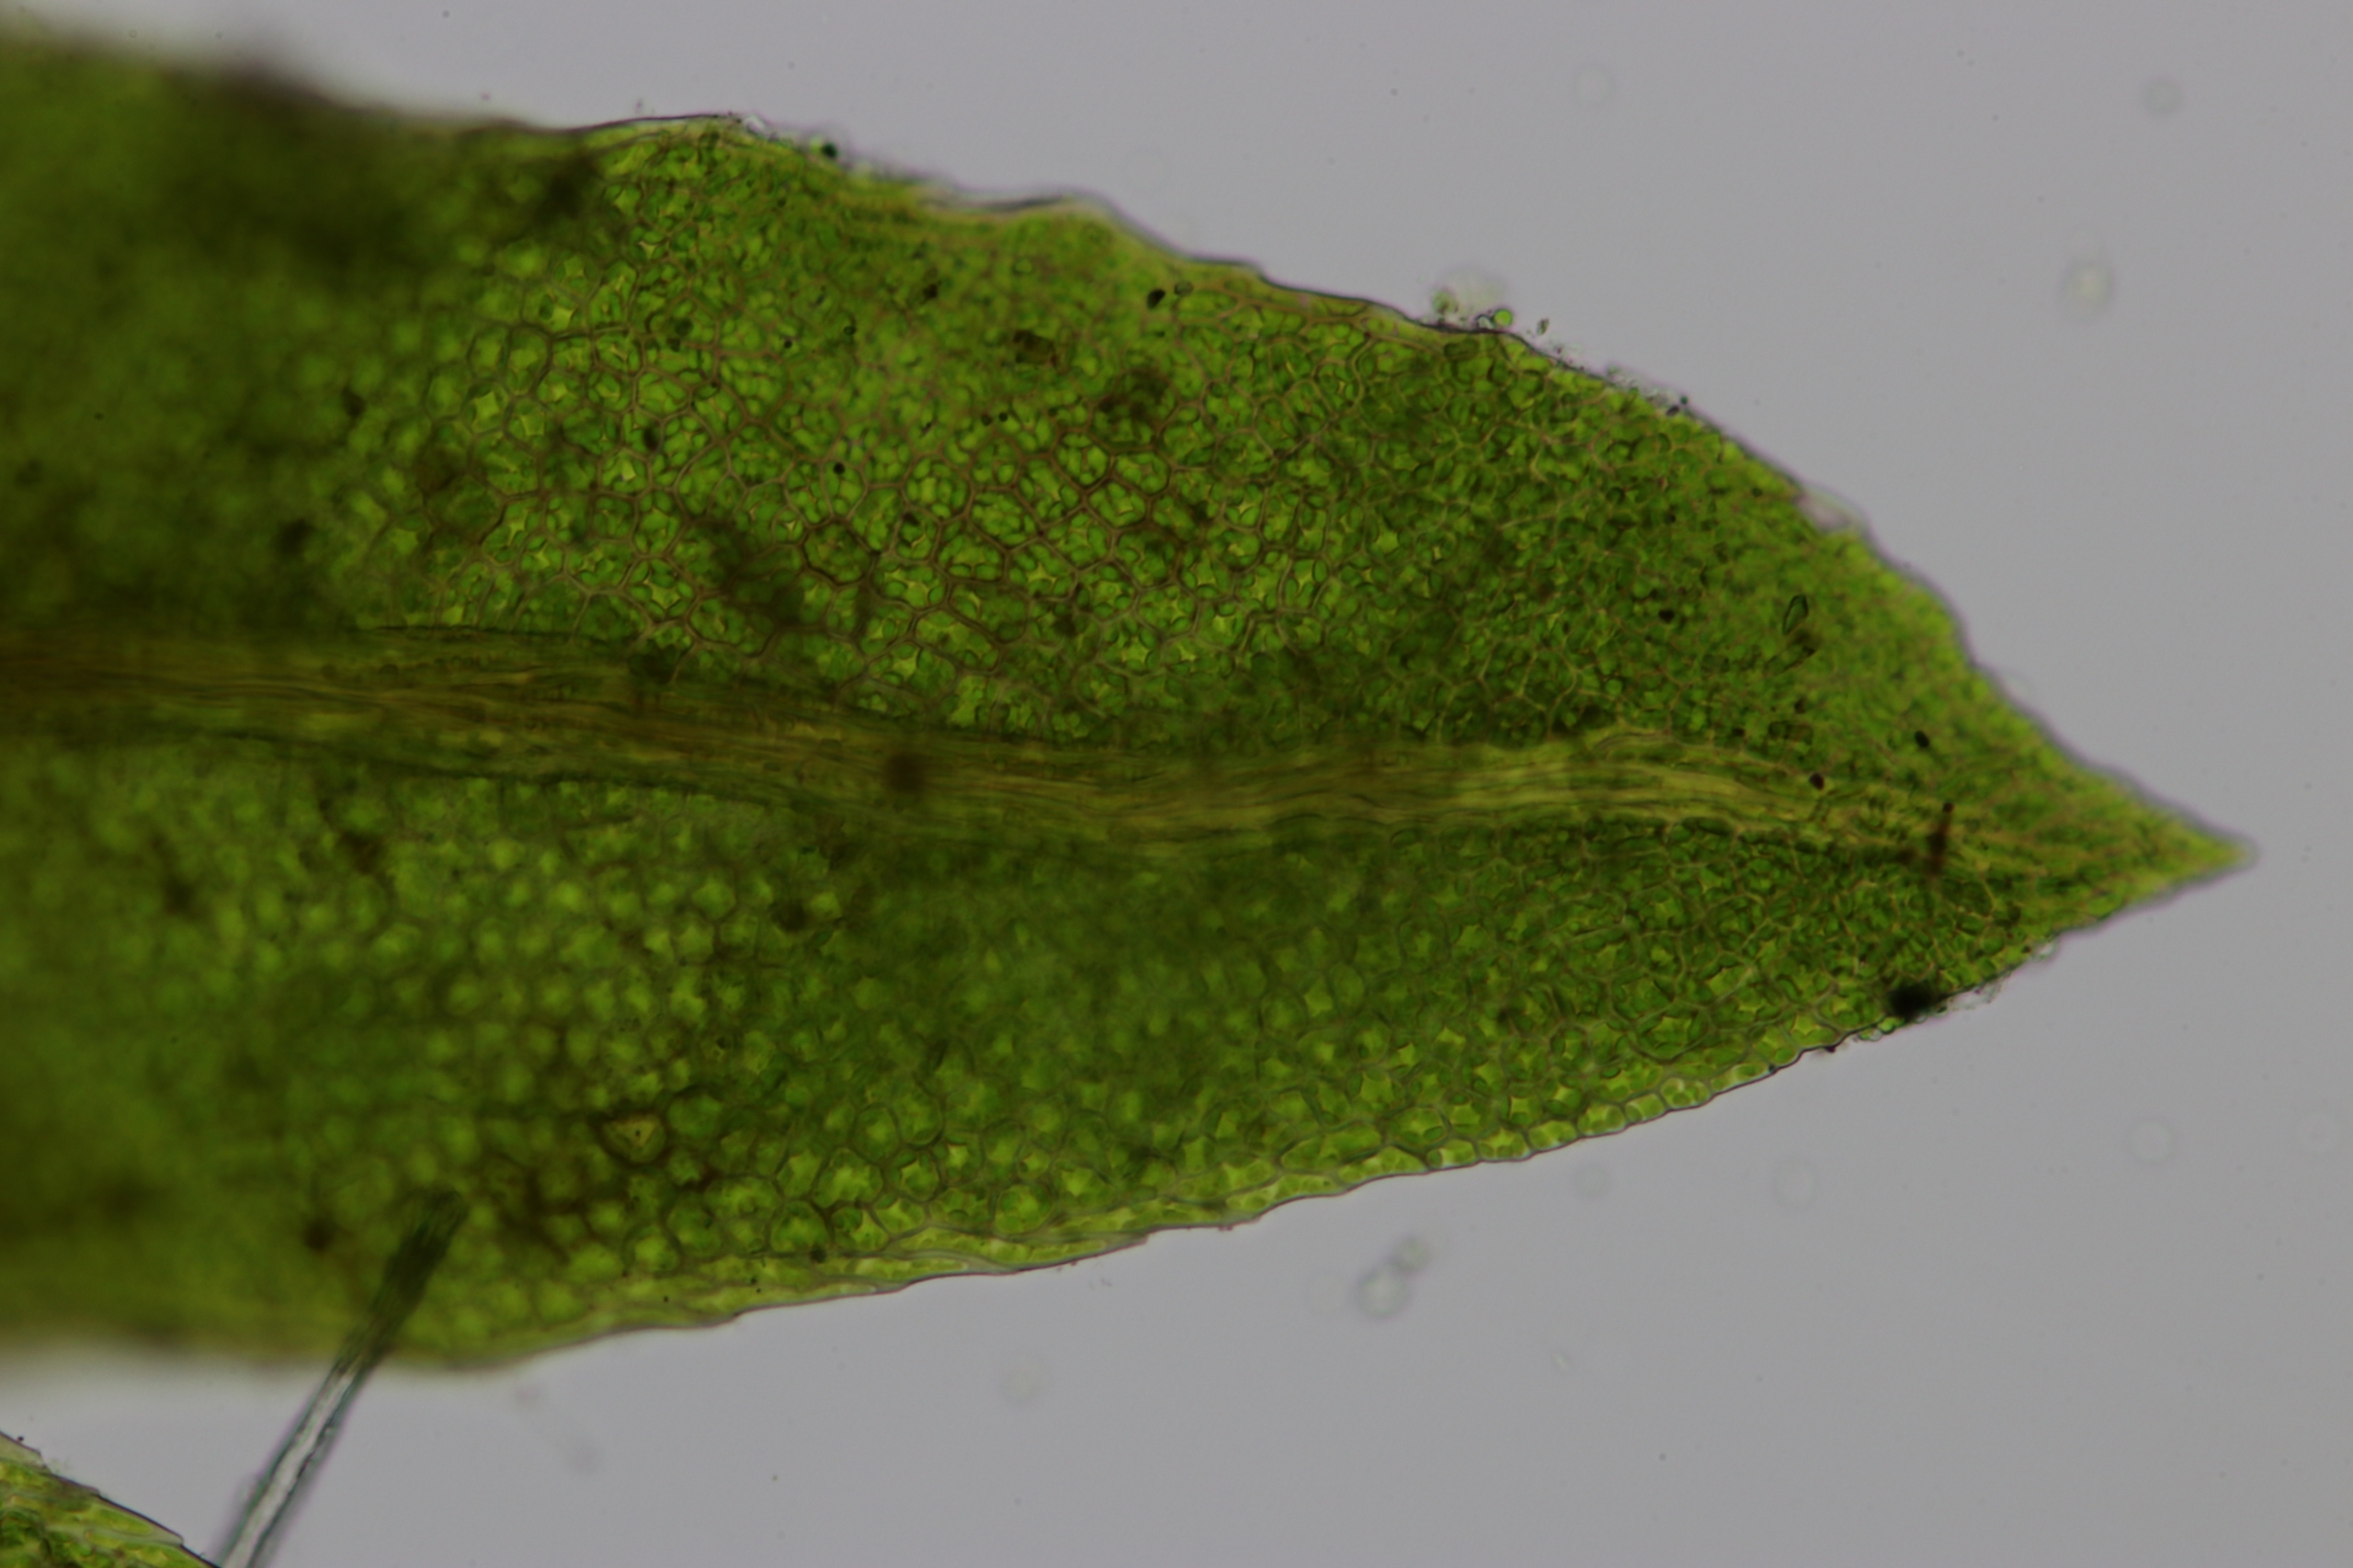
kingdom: Plantae
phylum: Bryophyta
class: Bryopsida
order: Dicranales
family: Fissidentaceae
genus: Fissidens
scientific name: Fissidens pusillus
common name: Bæk-rademos
